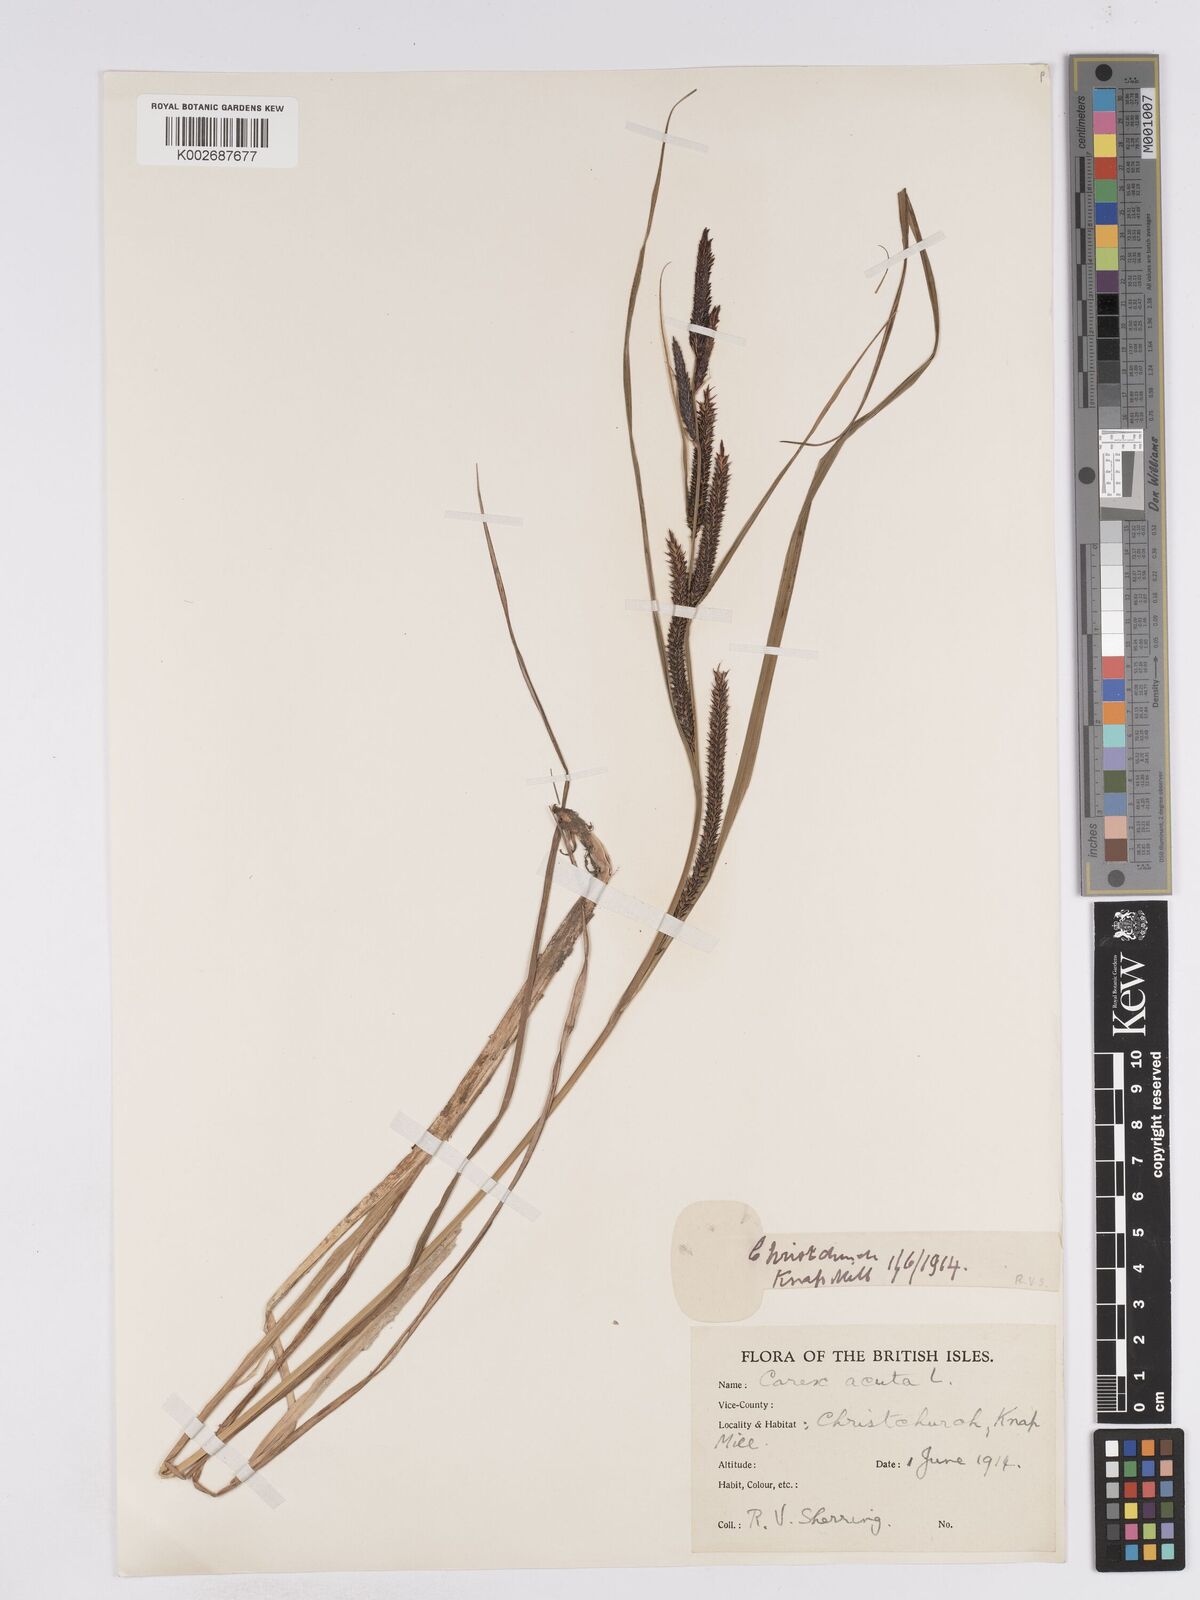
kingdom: Plantae
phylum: Tracheophyta
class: Liliopsida
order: Poales
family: Cyperaceae
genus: Carex
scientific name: Carex acuta
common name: Slender tufted-sedge
